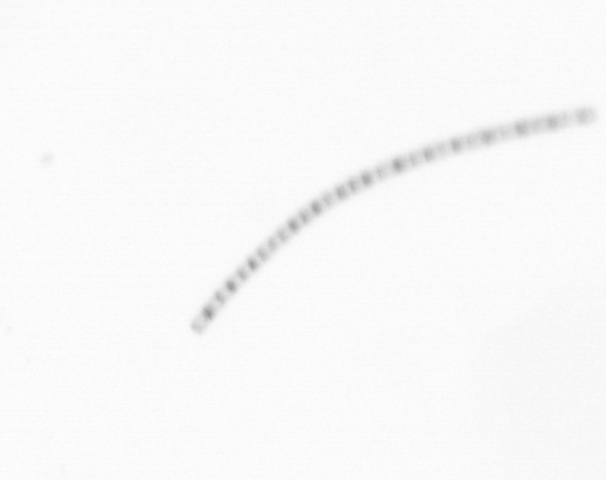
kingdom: Chromista
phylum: Ochrophyta
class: Bacillariophyceae
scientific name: Bacillariophyceae
